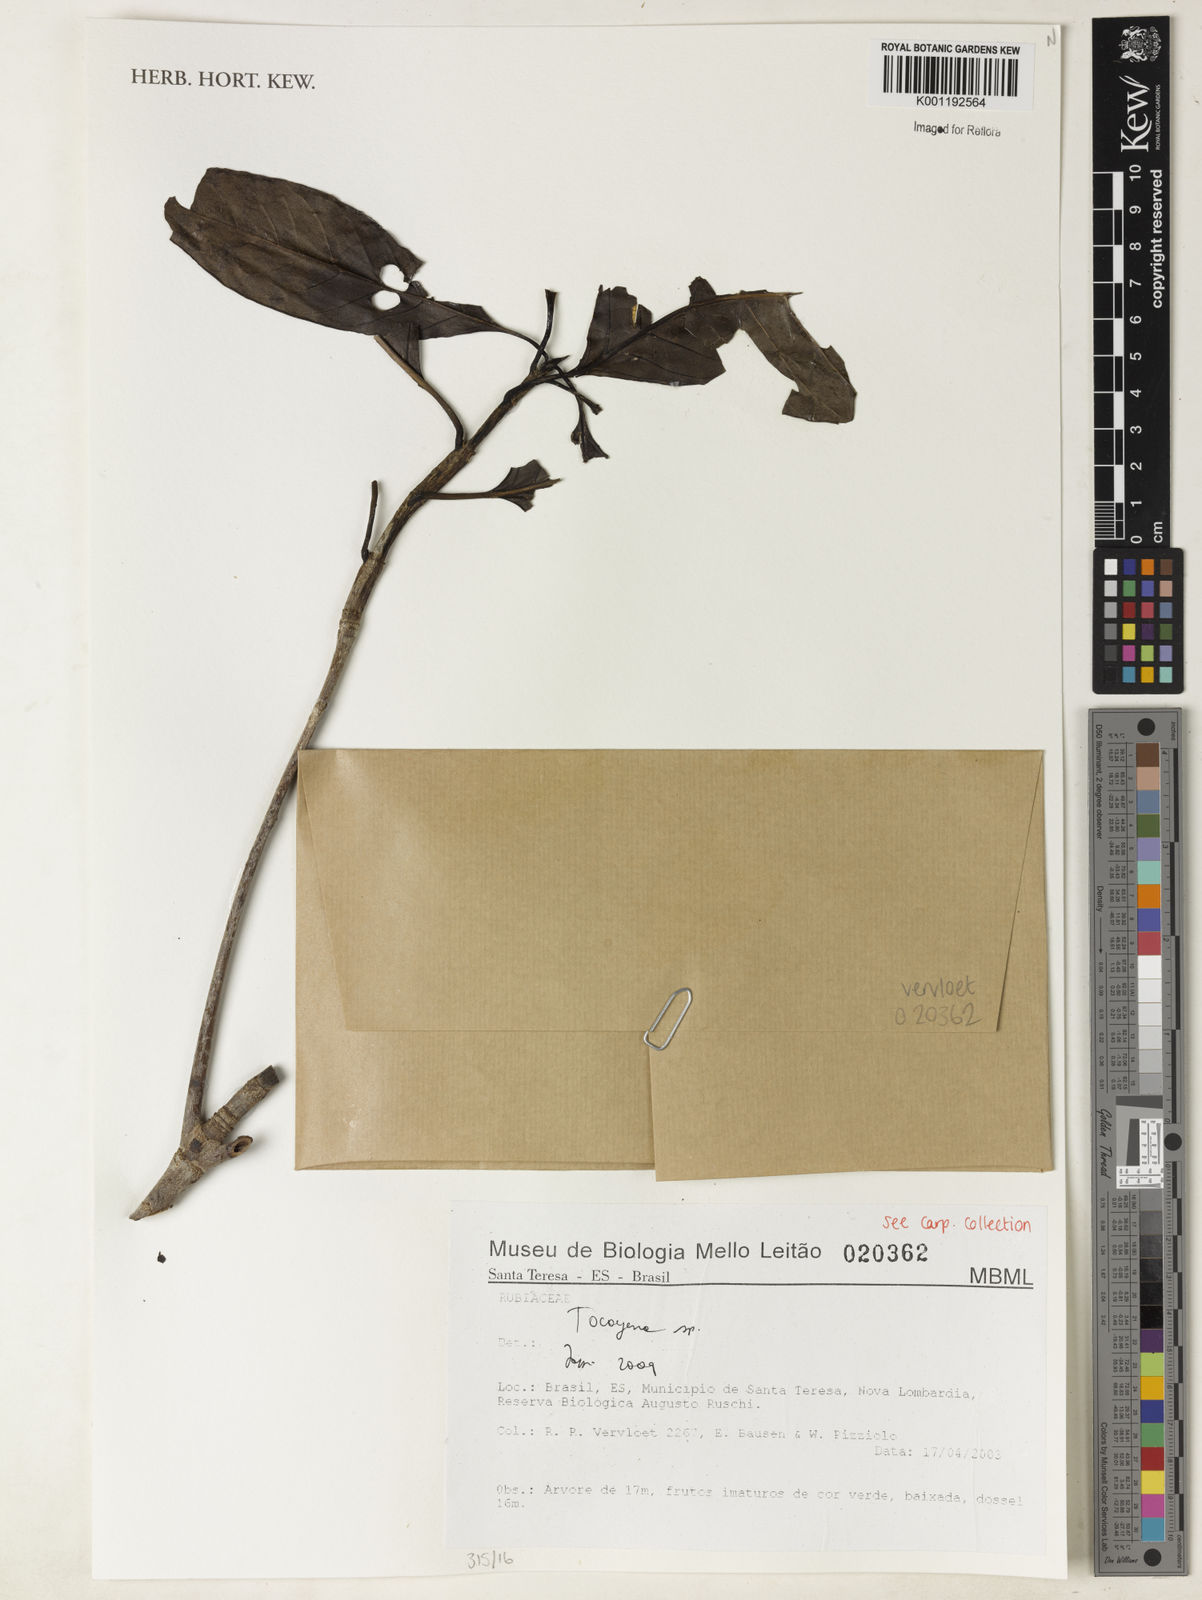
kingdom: Plantae
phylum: Tracheophyta
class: Magnoliopsida
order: Gentianales
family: Rubiaceae
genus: Tocoyena
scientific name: Tocoyena
